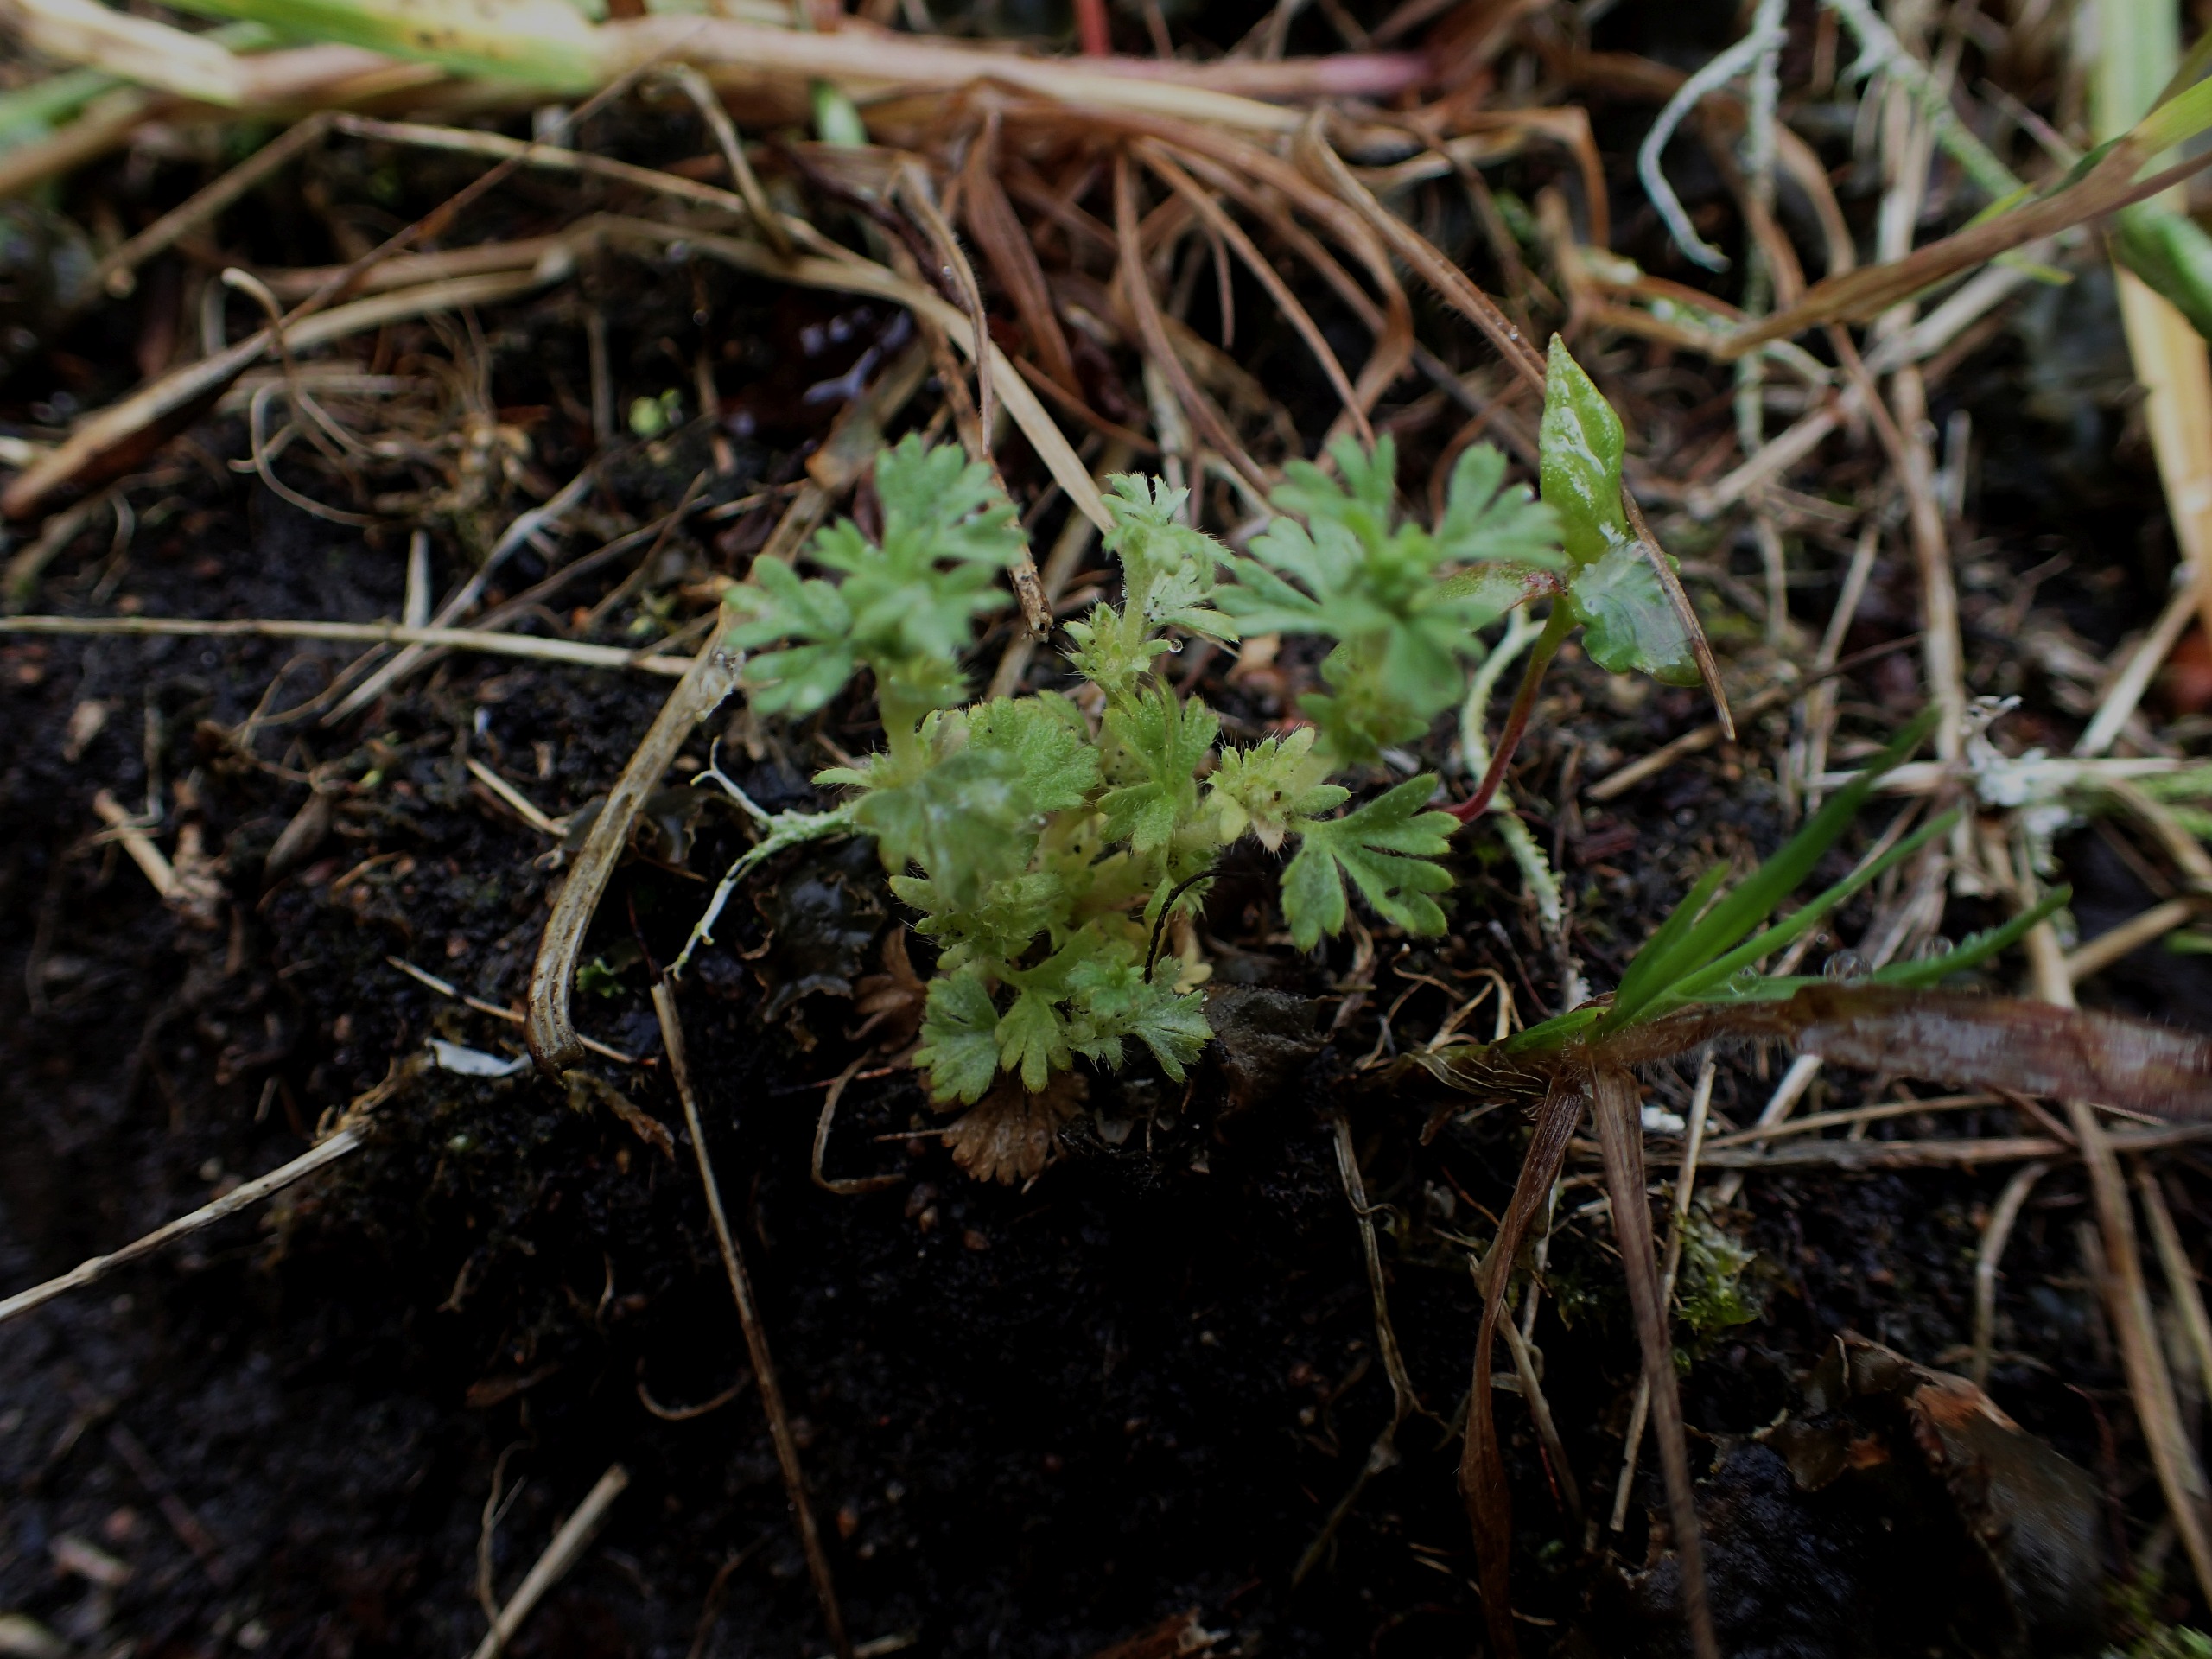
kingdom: Plantae
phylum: Tracheophyta
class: Magnoliopsida
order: Rosales
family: Rosaceae
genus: Aphanes
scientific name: Aphanes arvensis
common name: Dværgløvefod
